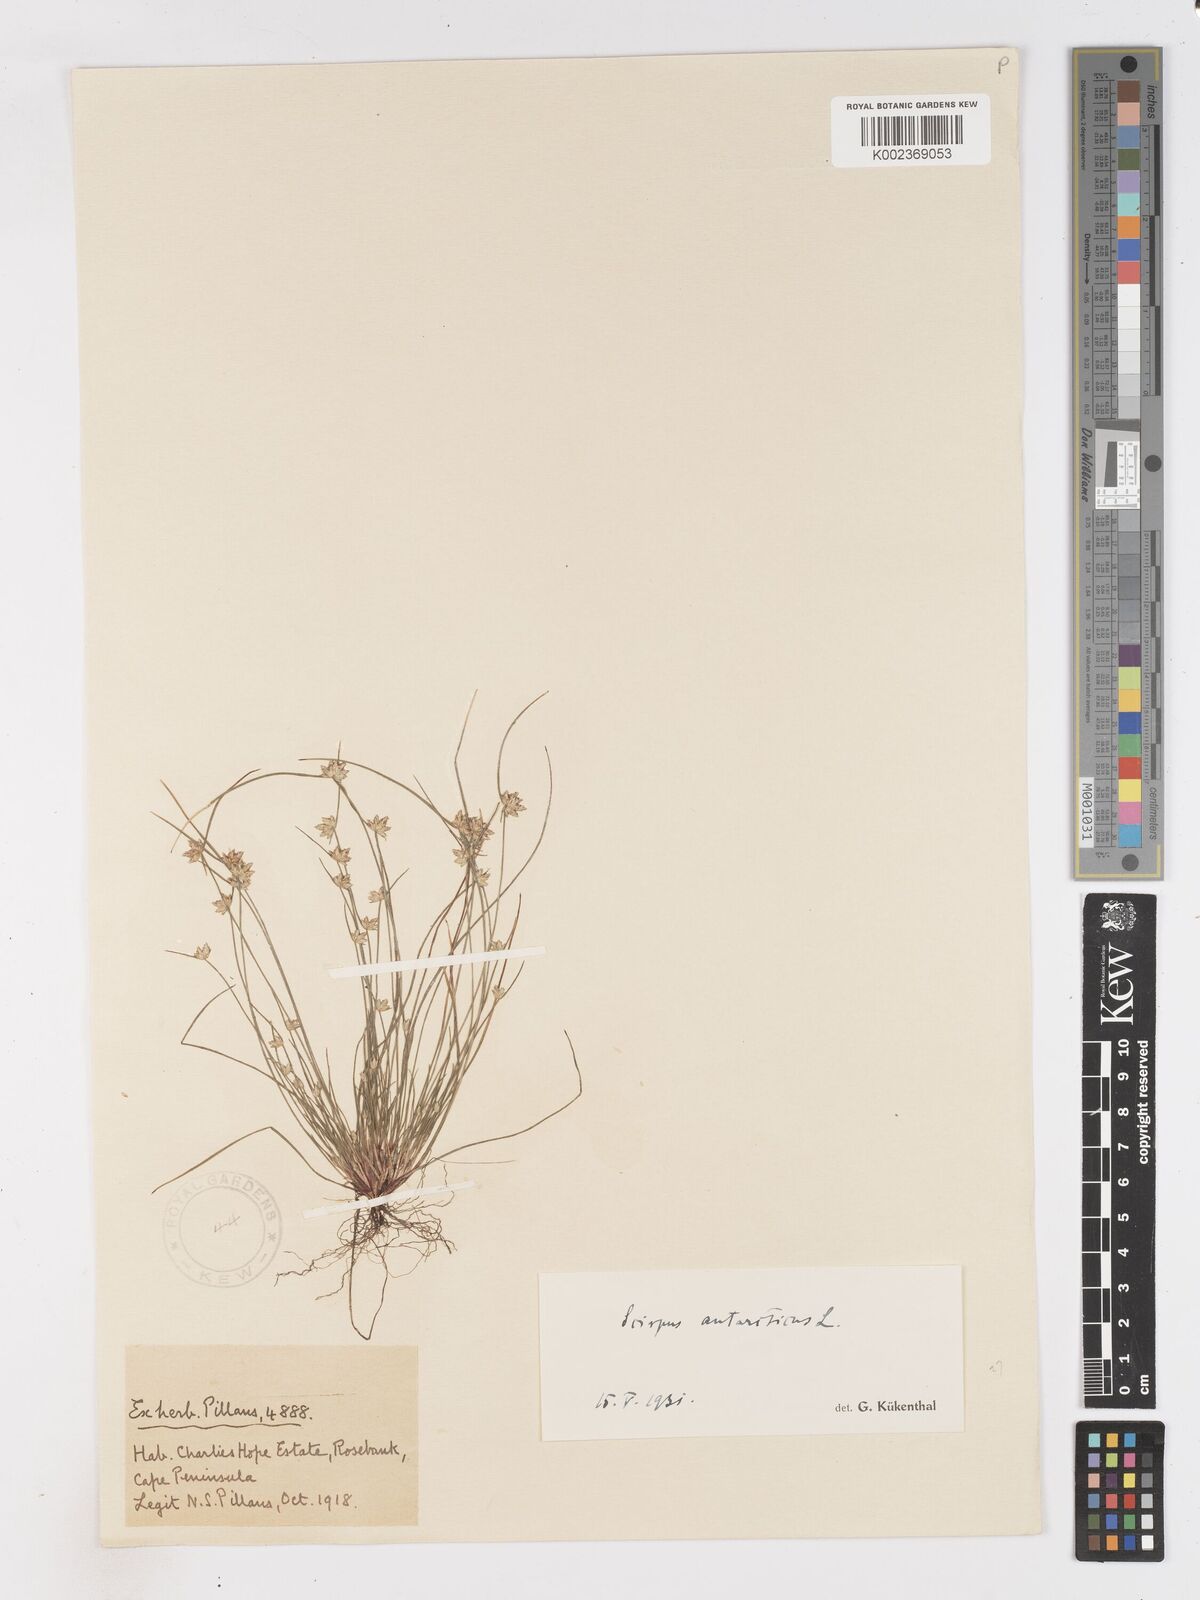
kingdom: Plantae
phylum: Tracheophyta
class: Liliopsida
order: Poales
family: Cyperaceae
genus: Isolepis
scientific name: Isolepis diabolica
